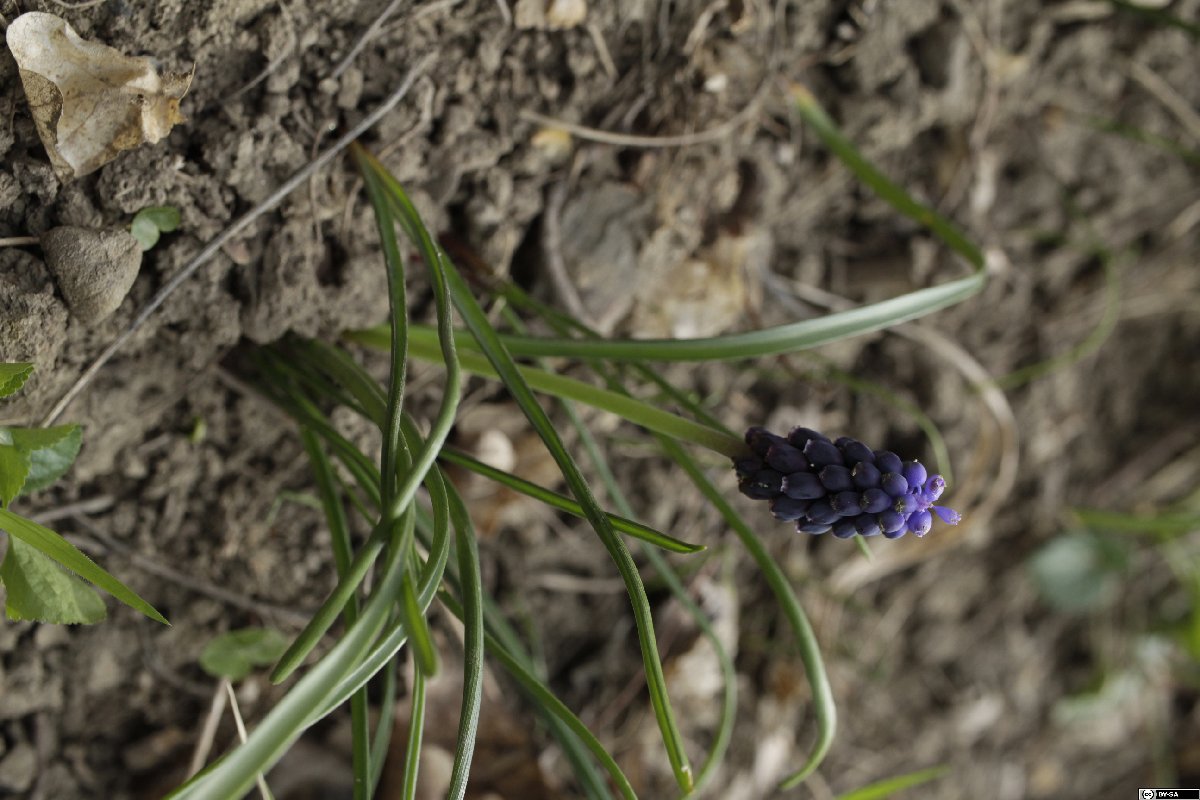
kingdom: Plantae
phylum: Tracheophyta
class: Liliopsida
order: Asparagales
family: Asparagaceae
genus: Muscari
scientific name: Muscari neglectum
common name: Grape-hyacinth
